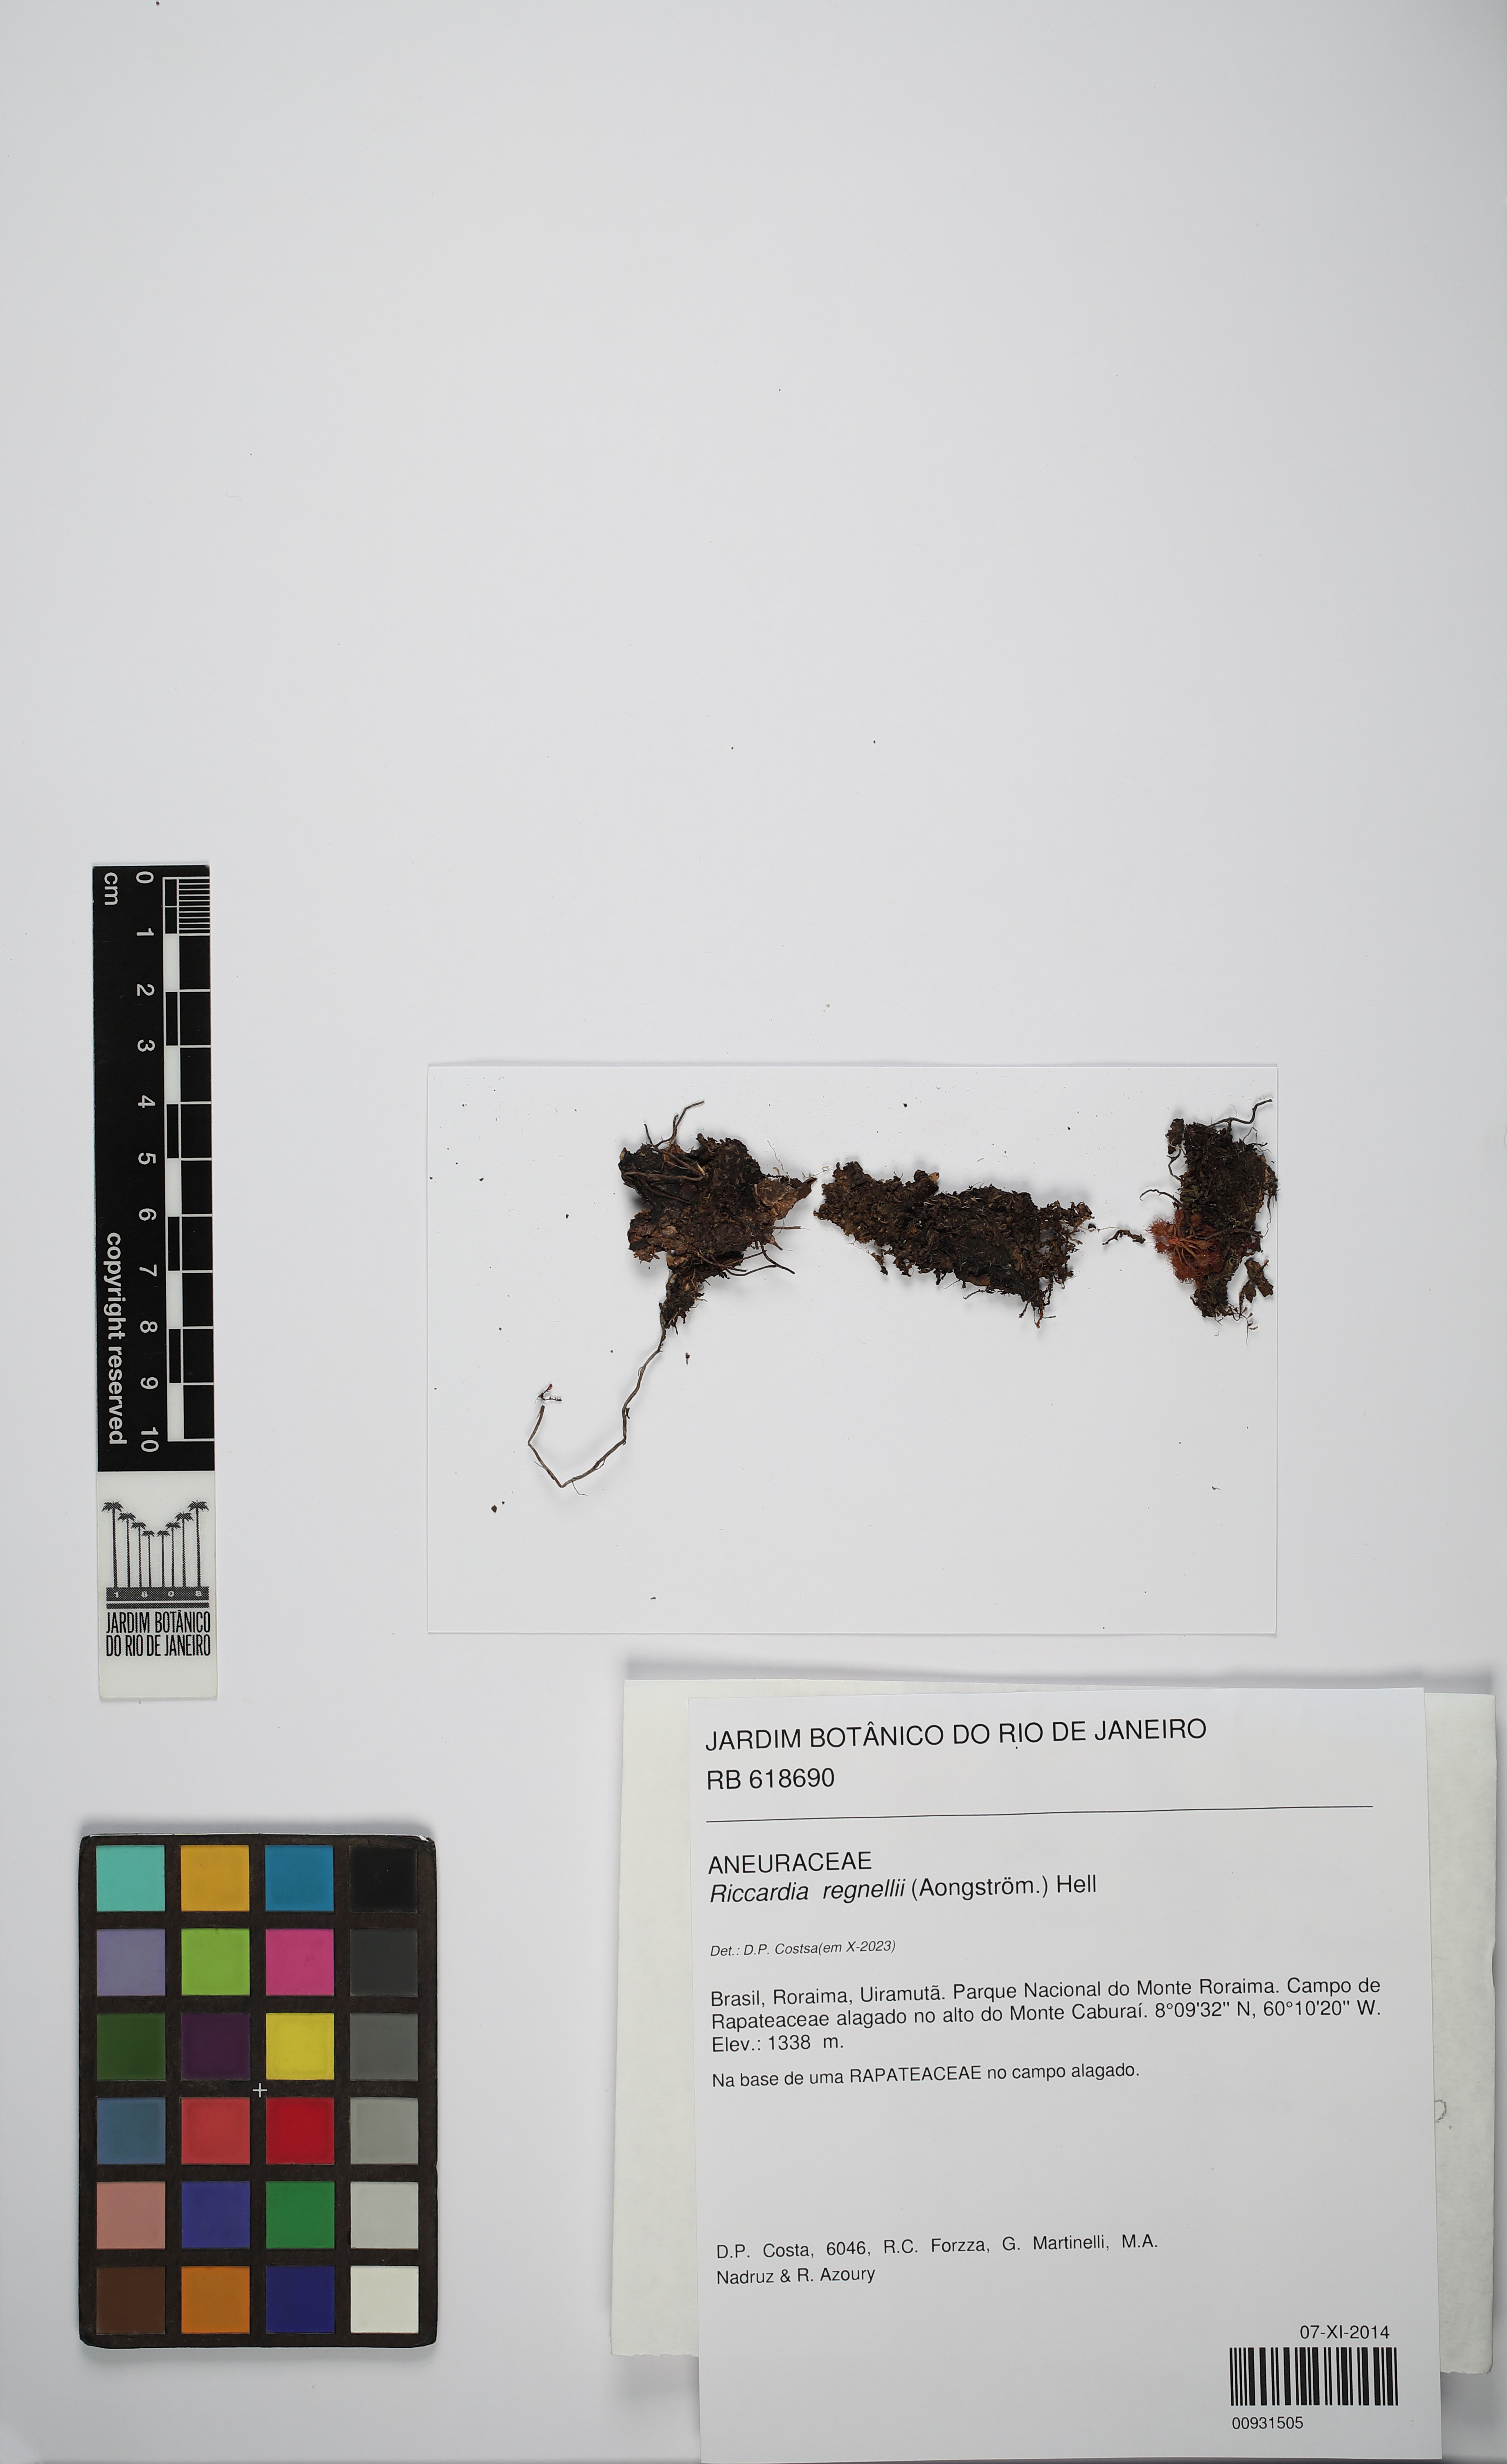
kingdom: Plantae
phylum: Marchantiophyta
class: Jungermanniopsida
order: Metzgeriales
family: Aneuraceae
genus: Riccardia
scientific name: Riccardia regnellii
